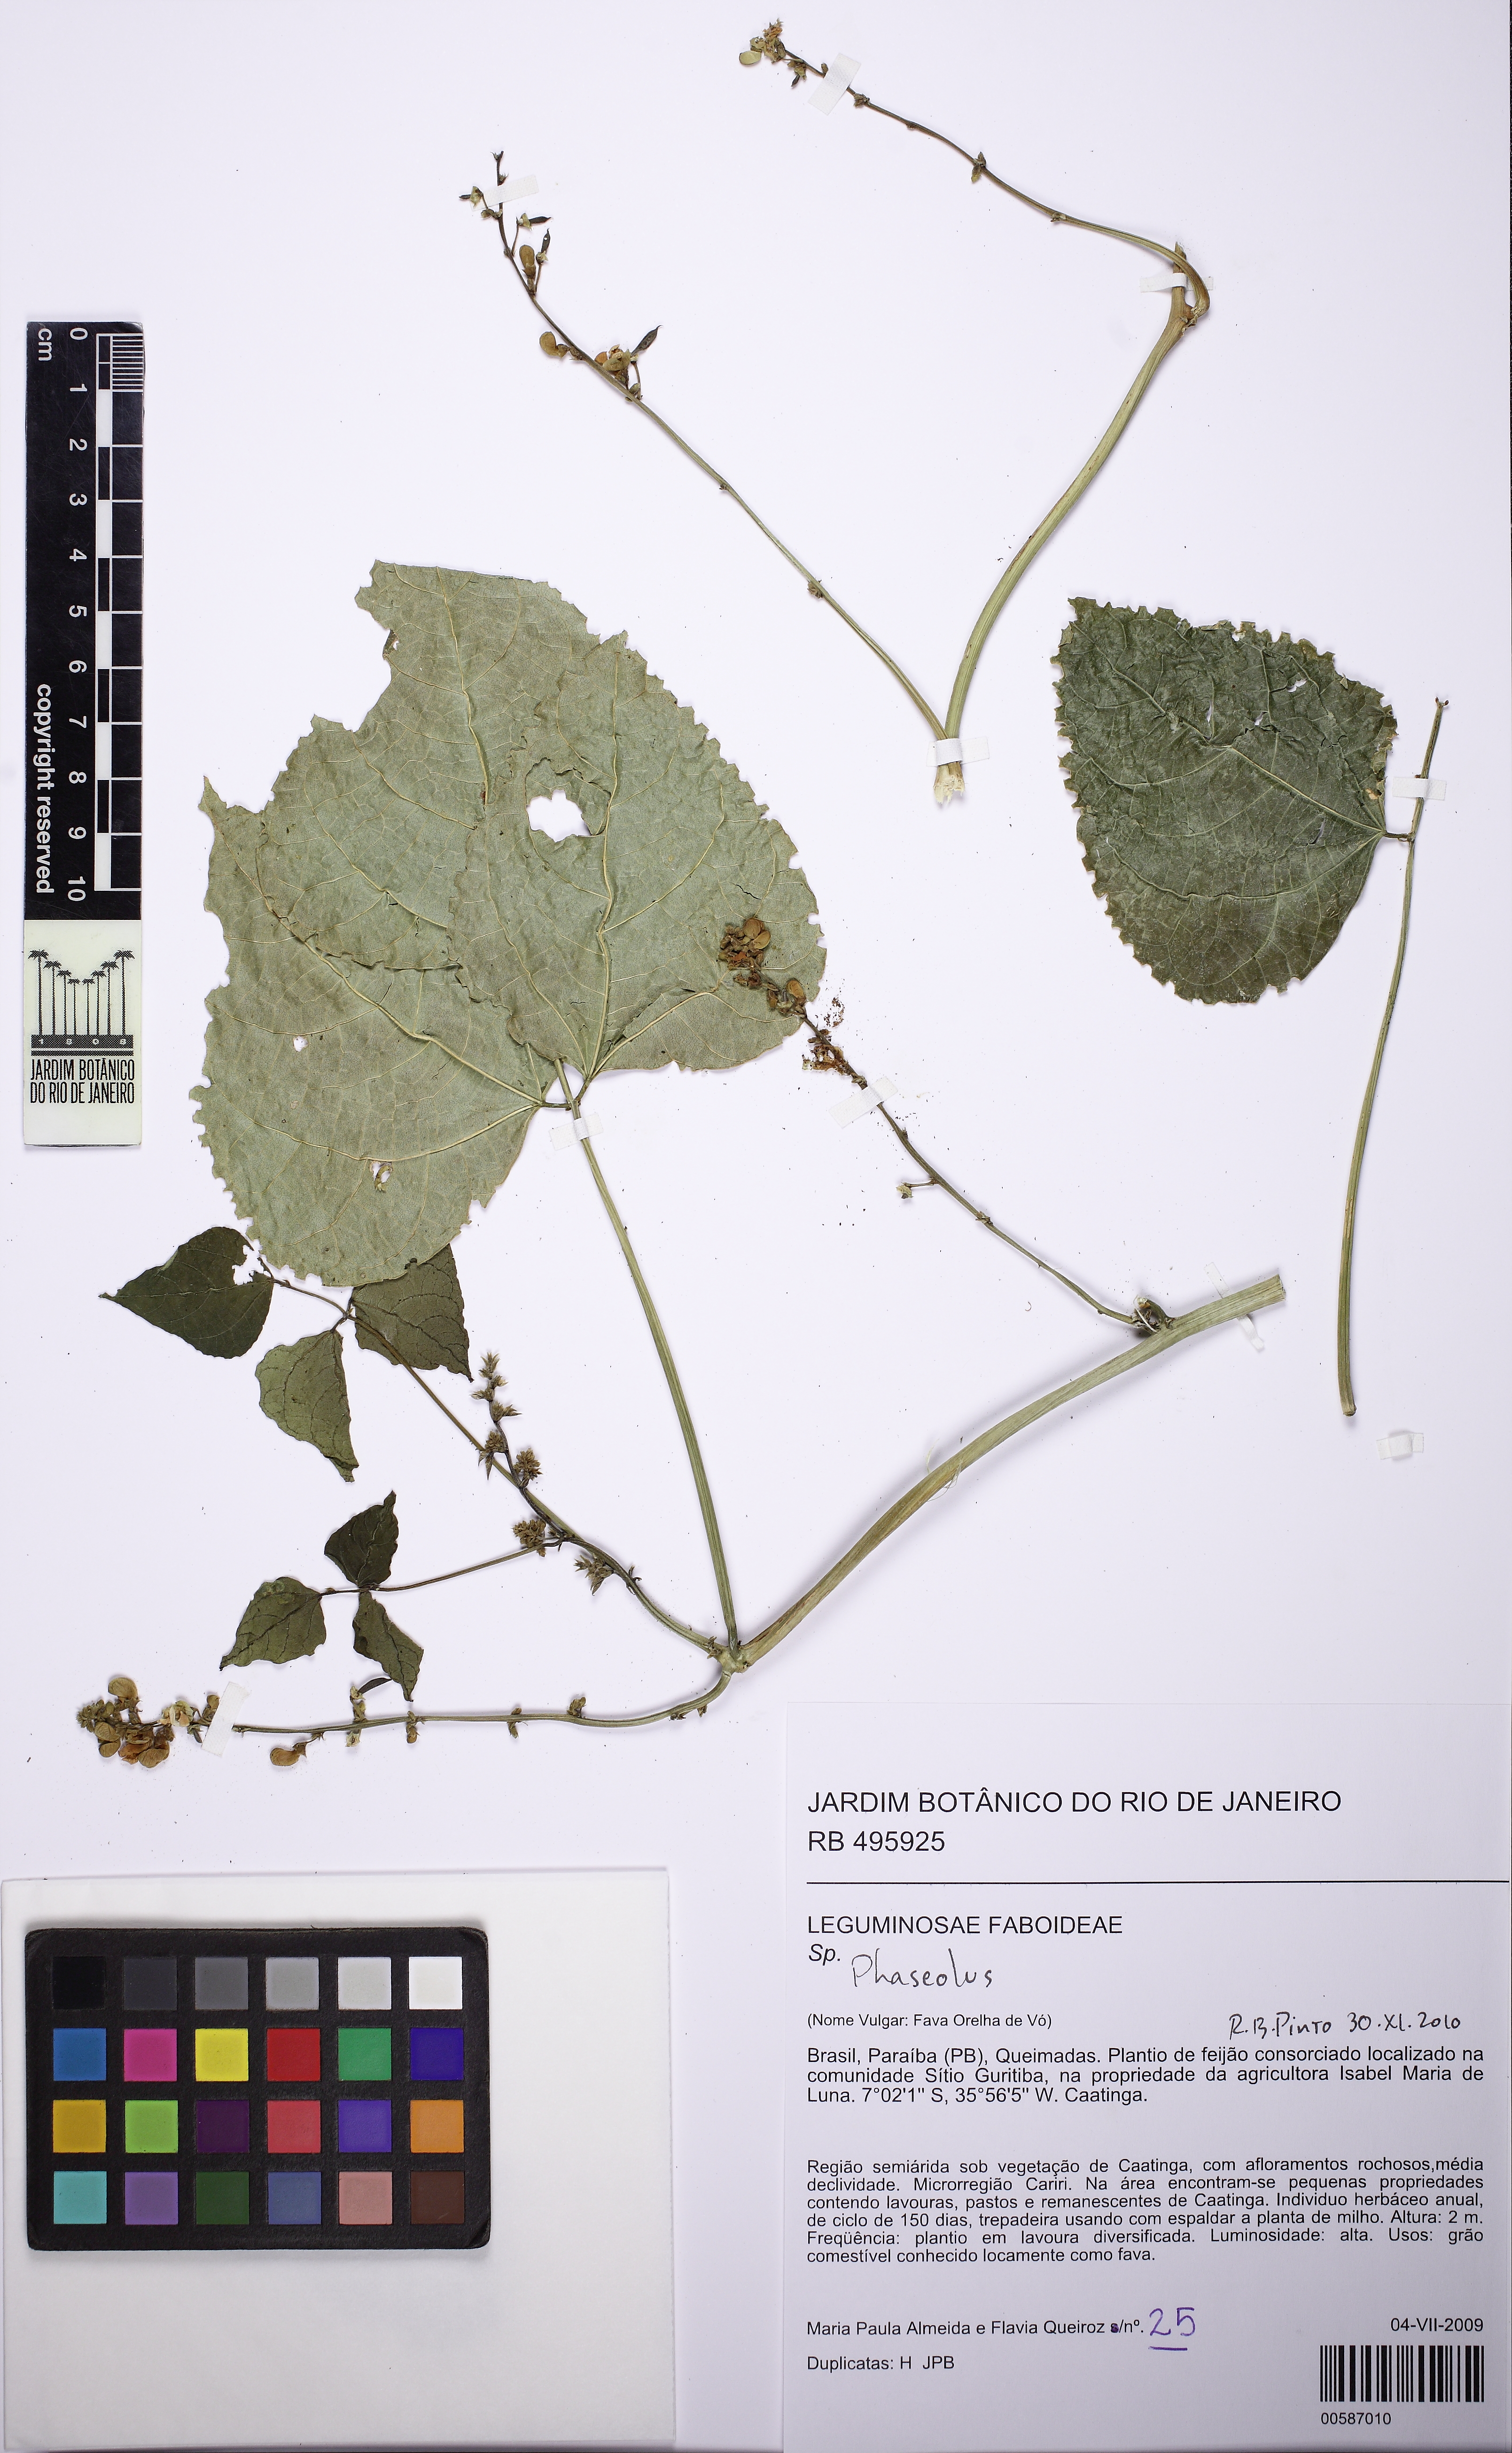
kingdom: Plantae
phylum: Tracheophyta
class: Magnoliopsida
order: Fabales
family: Fabaceae
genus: Phaseolus
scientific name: Phaseolus lunatus
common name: Sieva bean
